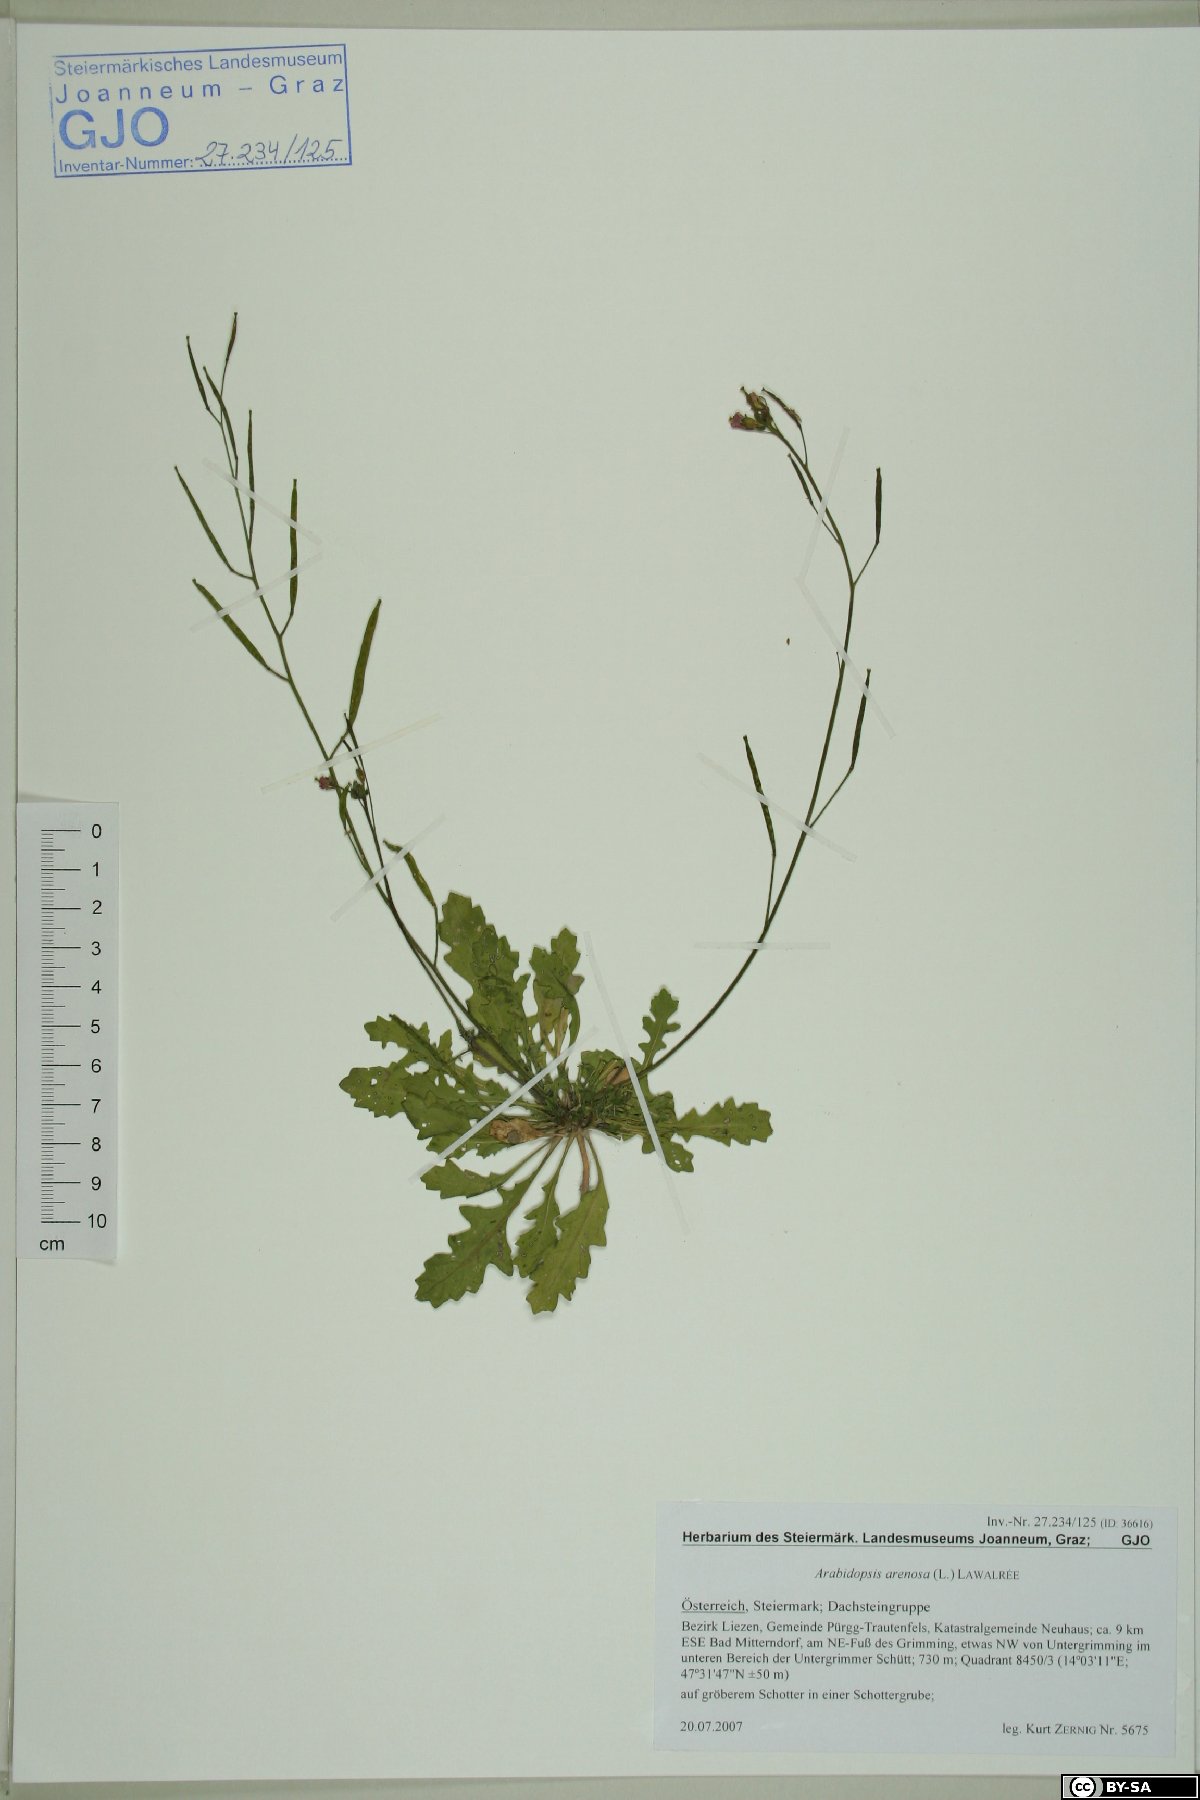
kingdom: Plantae
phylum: Tracheophyta
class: Magnoliopsida
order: Brassicales
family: Brassicaceae
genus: Arabidopsis
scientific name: Arabidopsis arenosa
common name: Sand rock-cress
